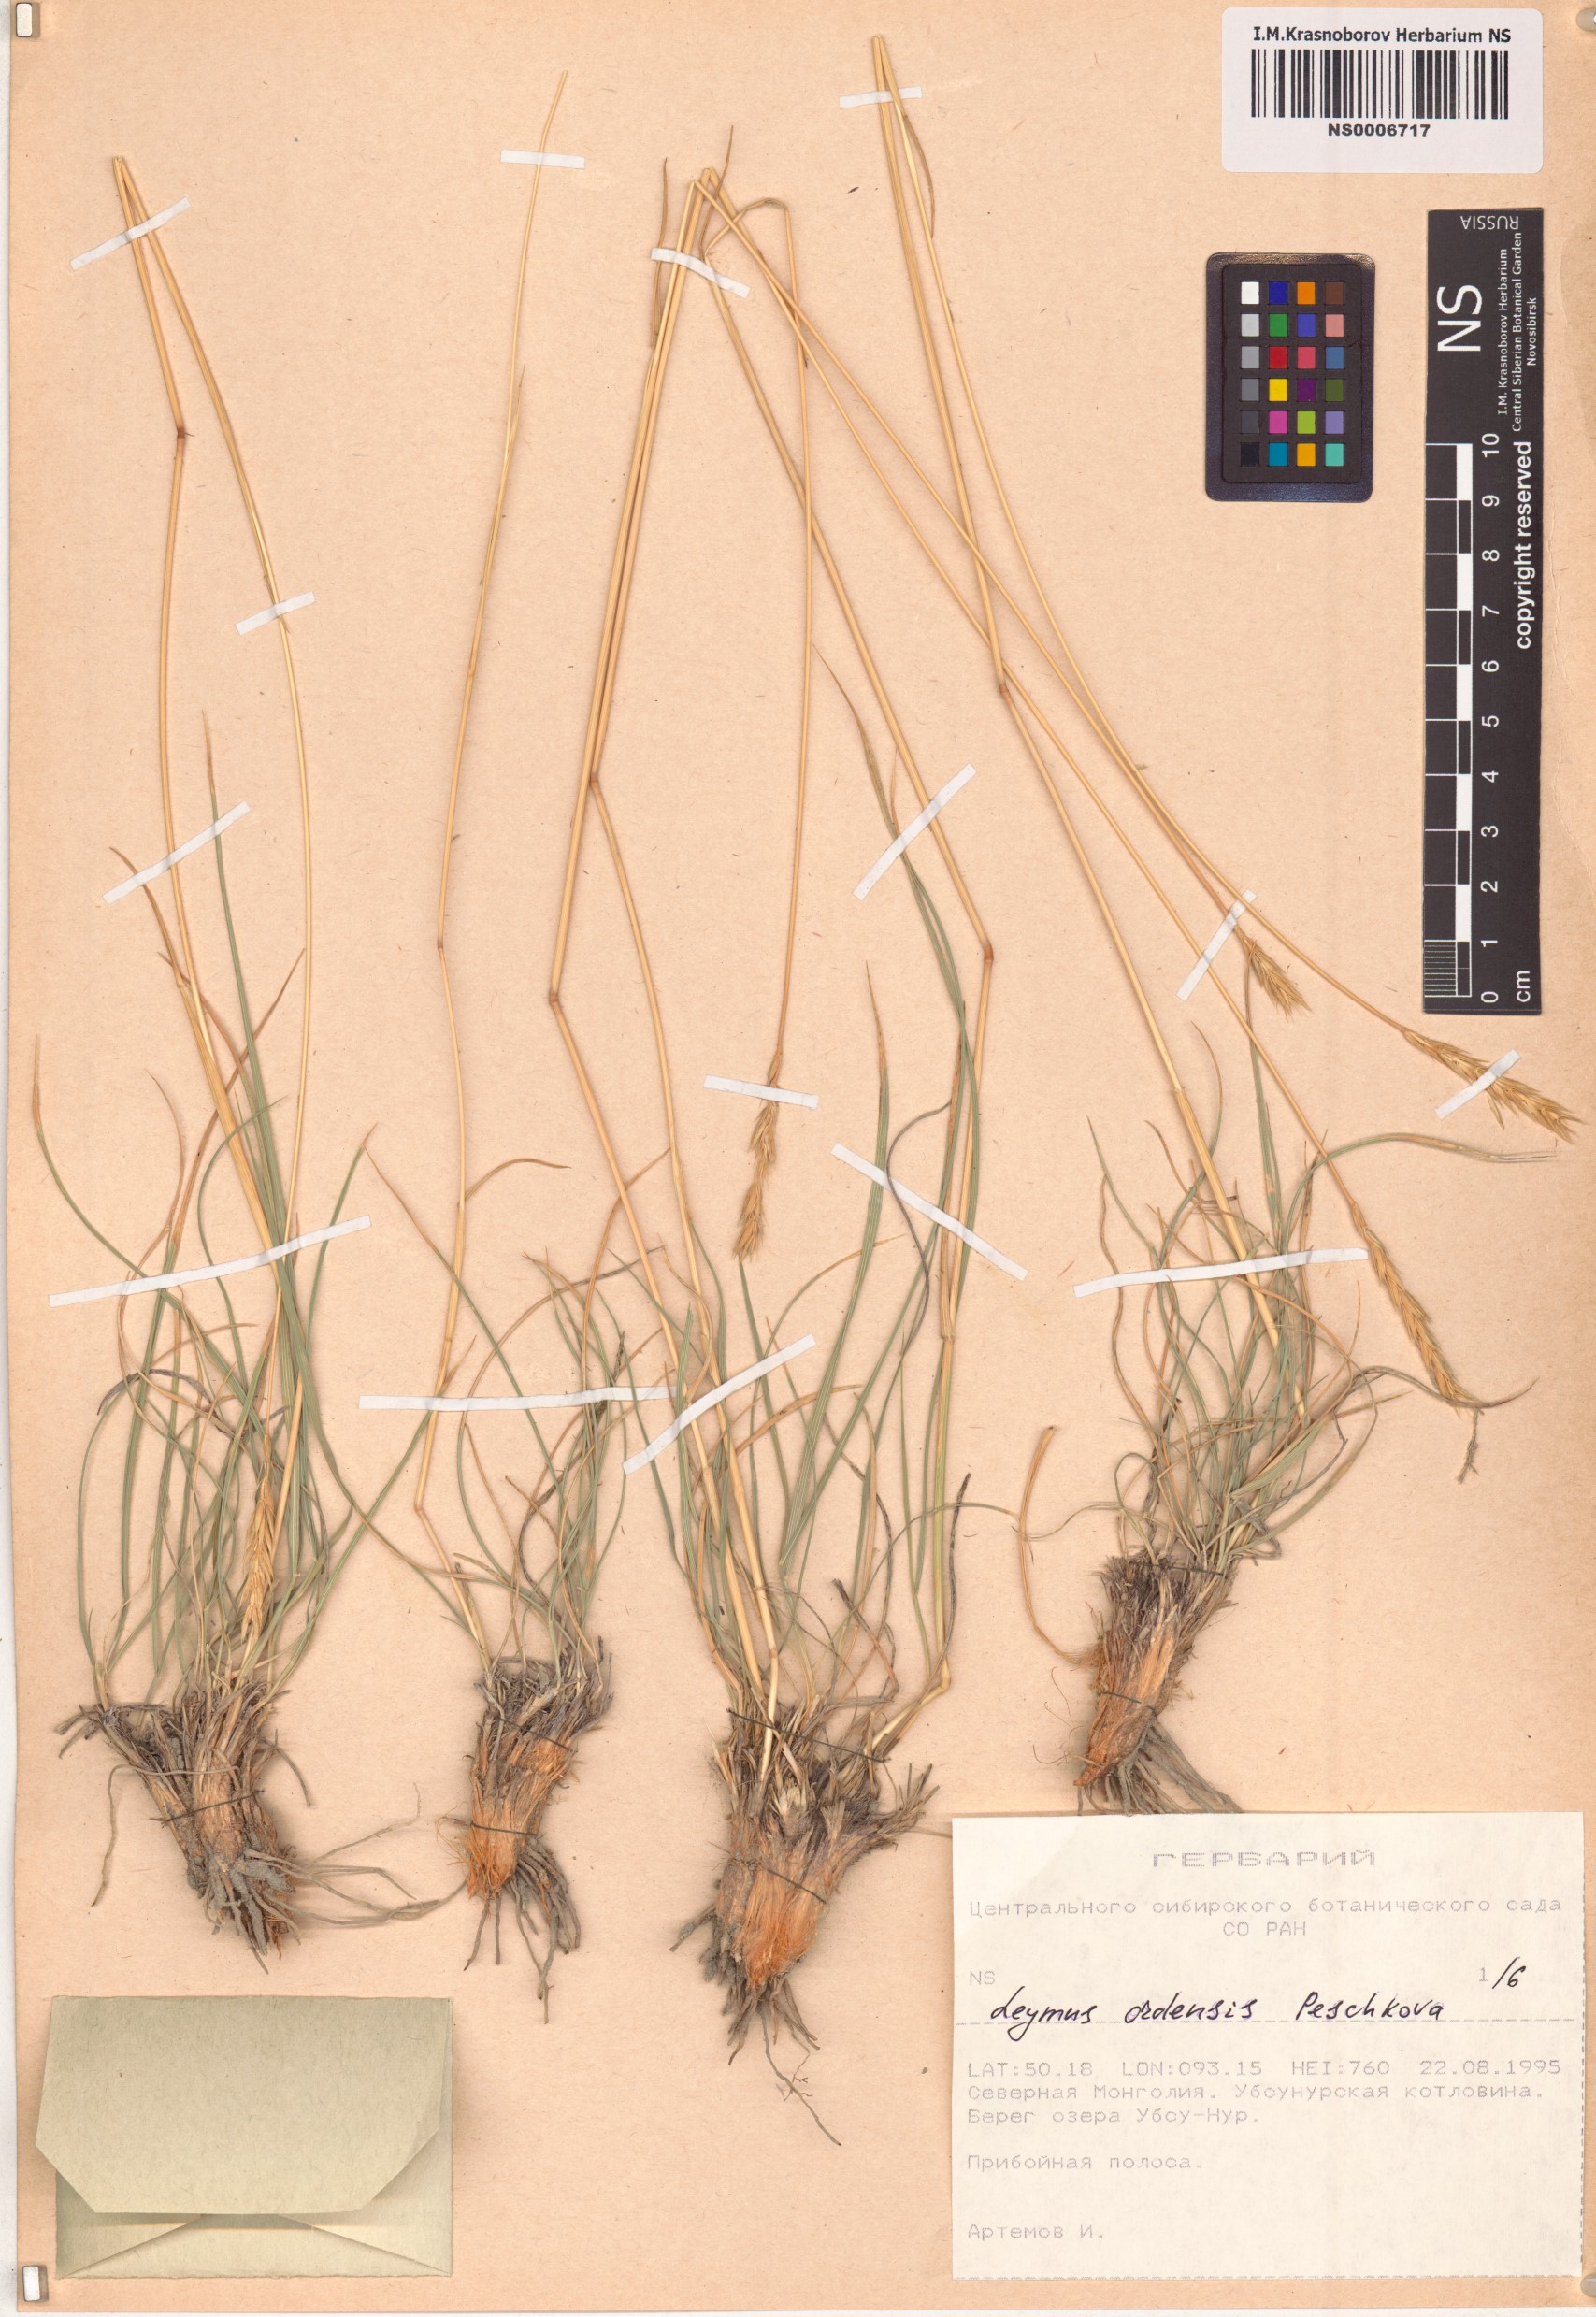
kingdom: Plantae
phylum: Tracheophyta
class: Liliopsida
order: Poales
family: Poaceae
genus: Leymus
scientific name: Leymus ordensis
